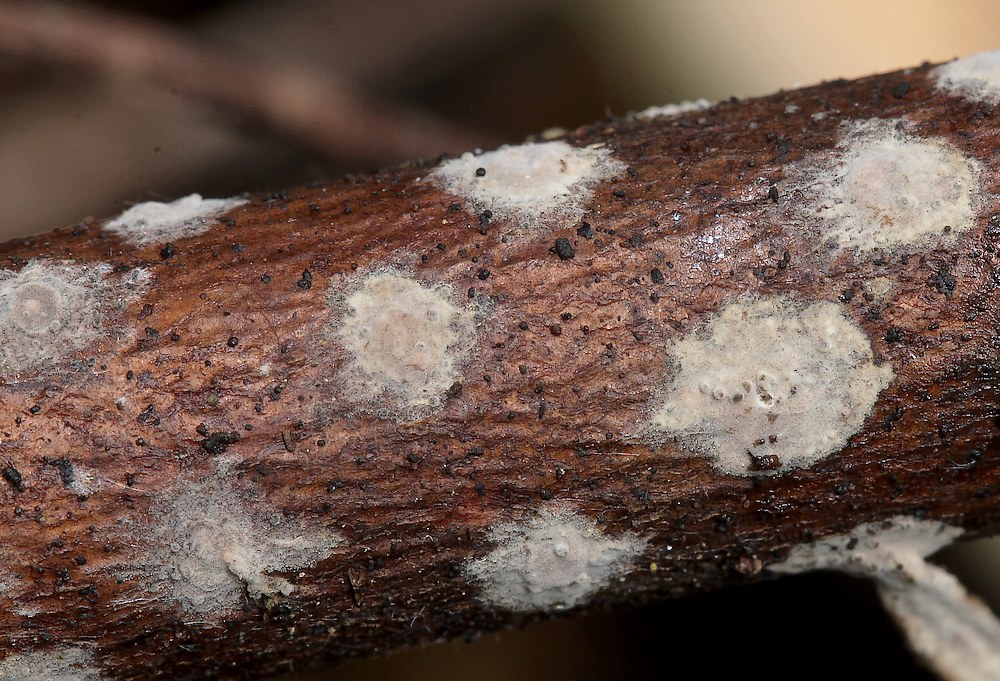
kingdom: Fungi
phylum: Basidiomycota
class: Agaricomycetes
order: Russulales
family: Peniophoraceae
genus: Peniophora
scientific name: Peniophora
